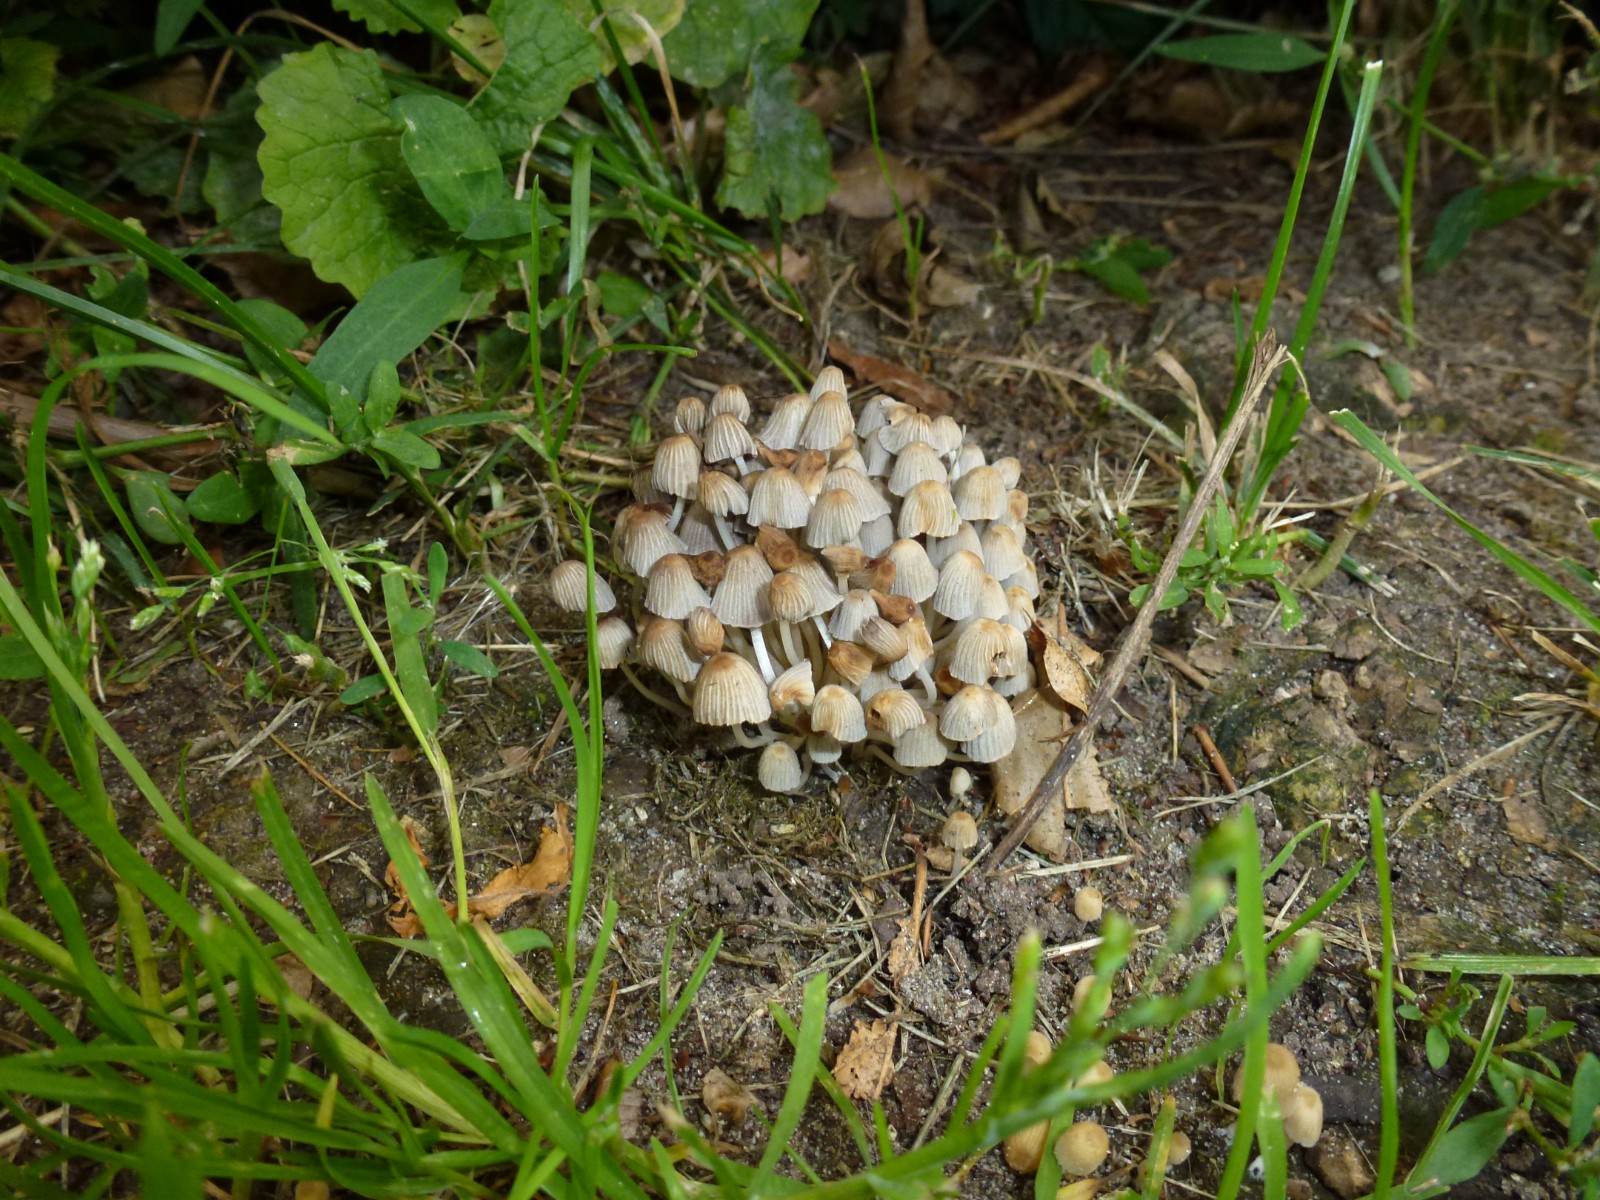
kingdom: Fungi
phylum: Basidiomycota
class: Agaricomycetes
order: Agaricales
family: Psathyrellaceae
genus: Coprinellus
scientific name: Coprinellus
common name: blækhat
